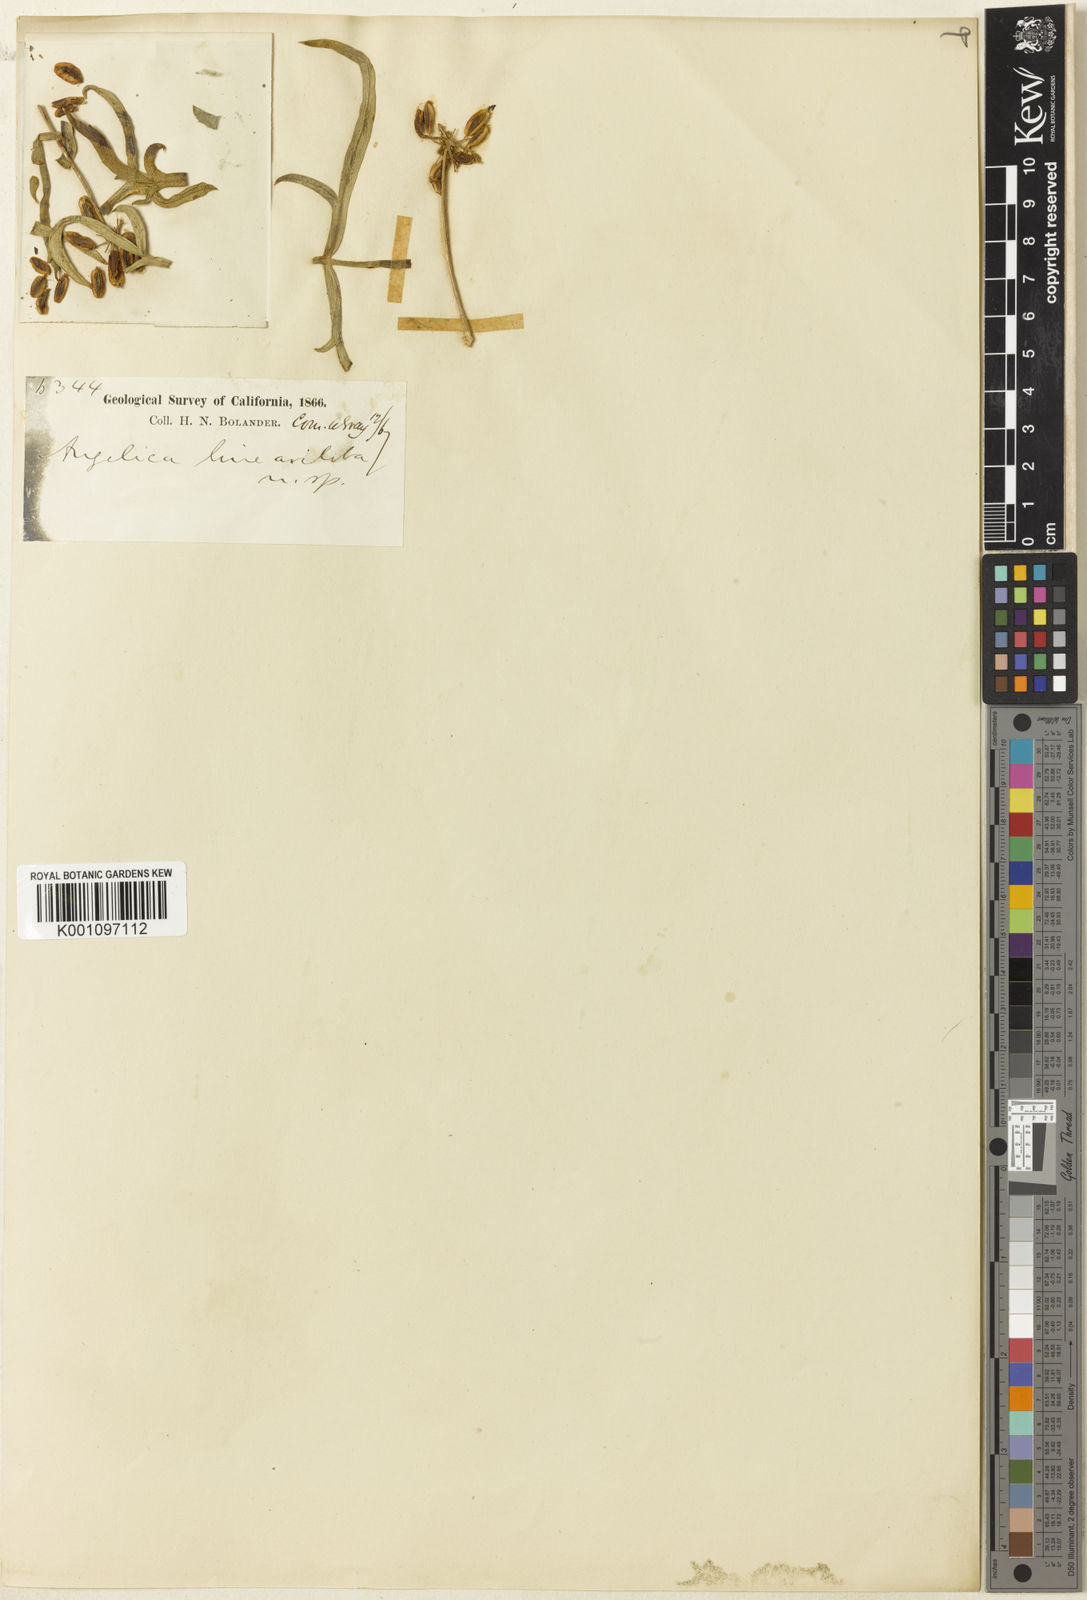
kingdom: Plantae
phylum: Tracheophyta
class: Magnoliopsida
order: Apiales
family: Apiaceae
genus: Angelica
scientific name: Angelica lineariloba
